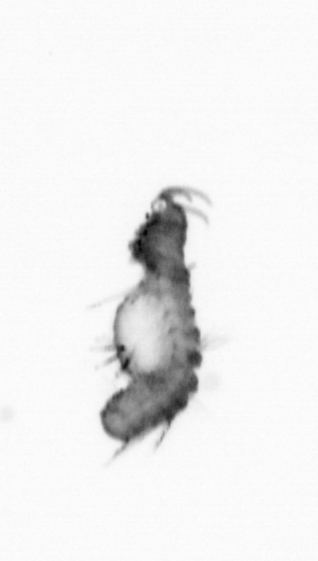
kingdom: Animalia
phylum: Annelida
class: Polychaeta
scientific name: Polychaeta
